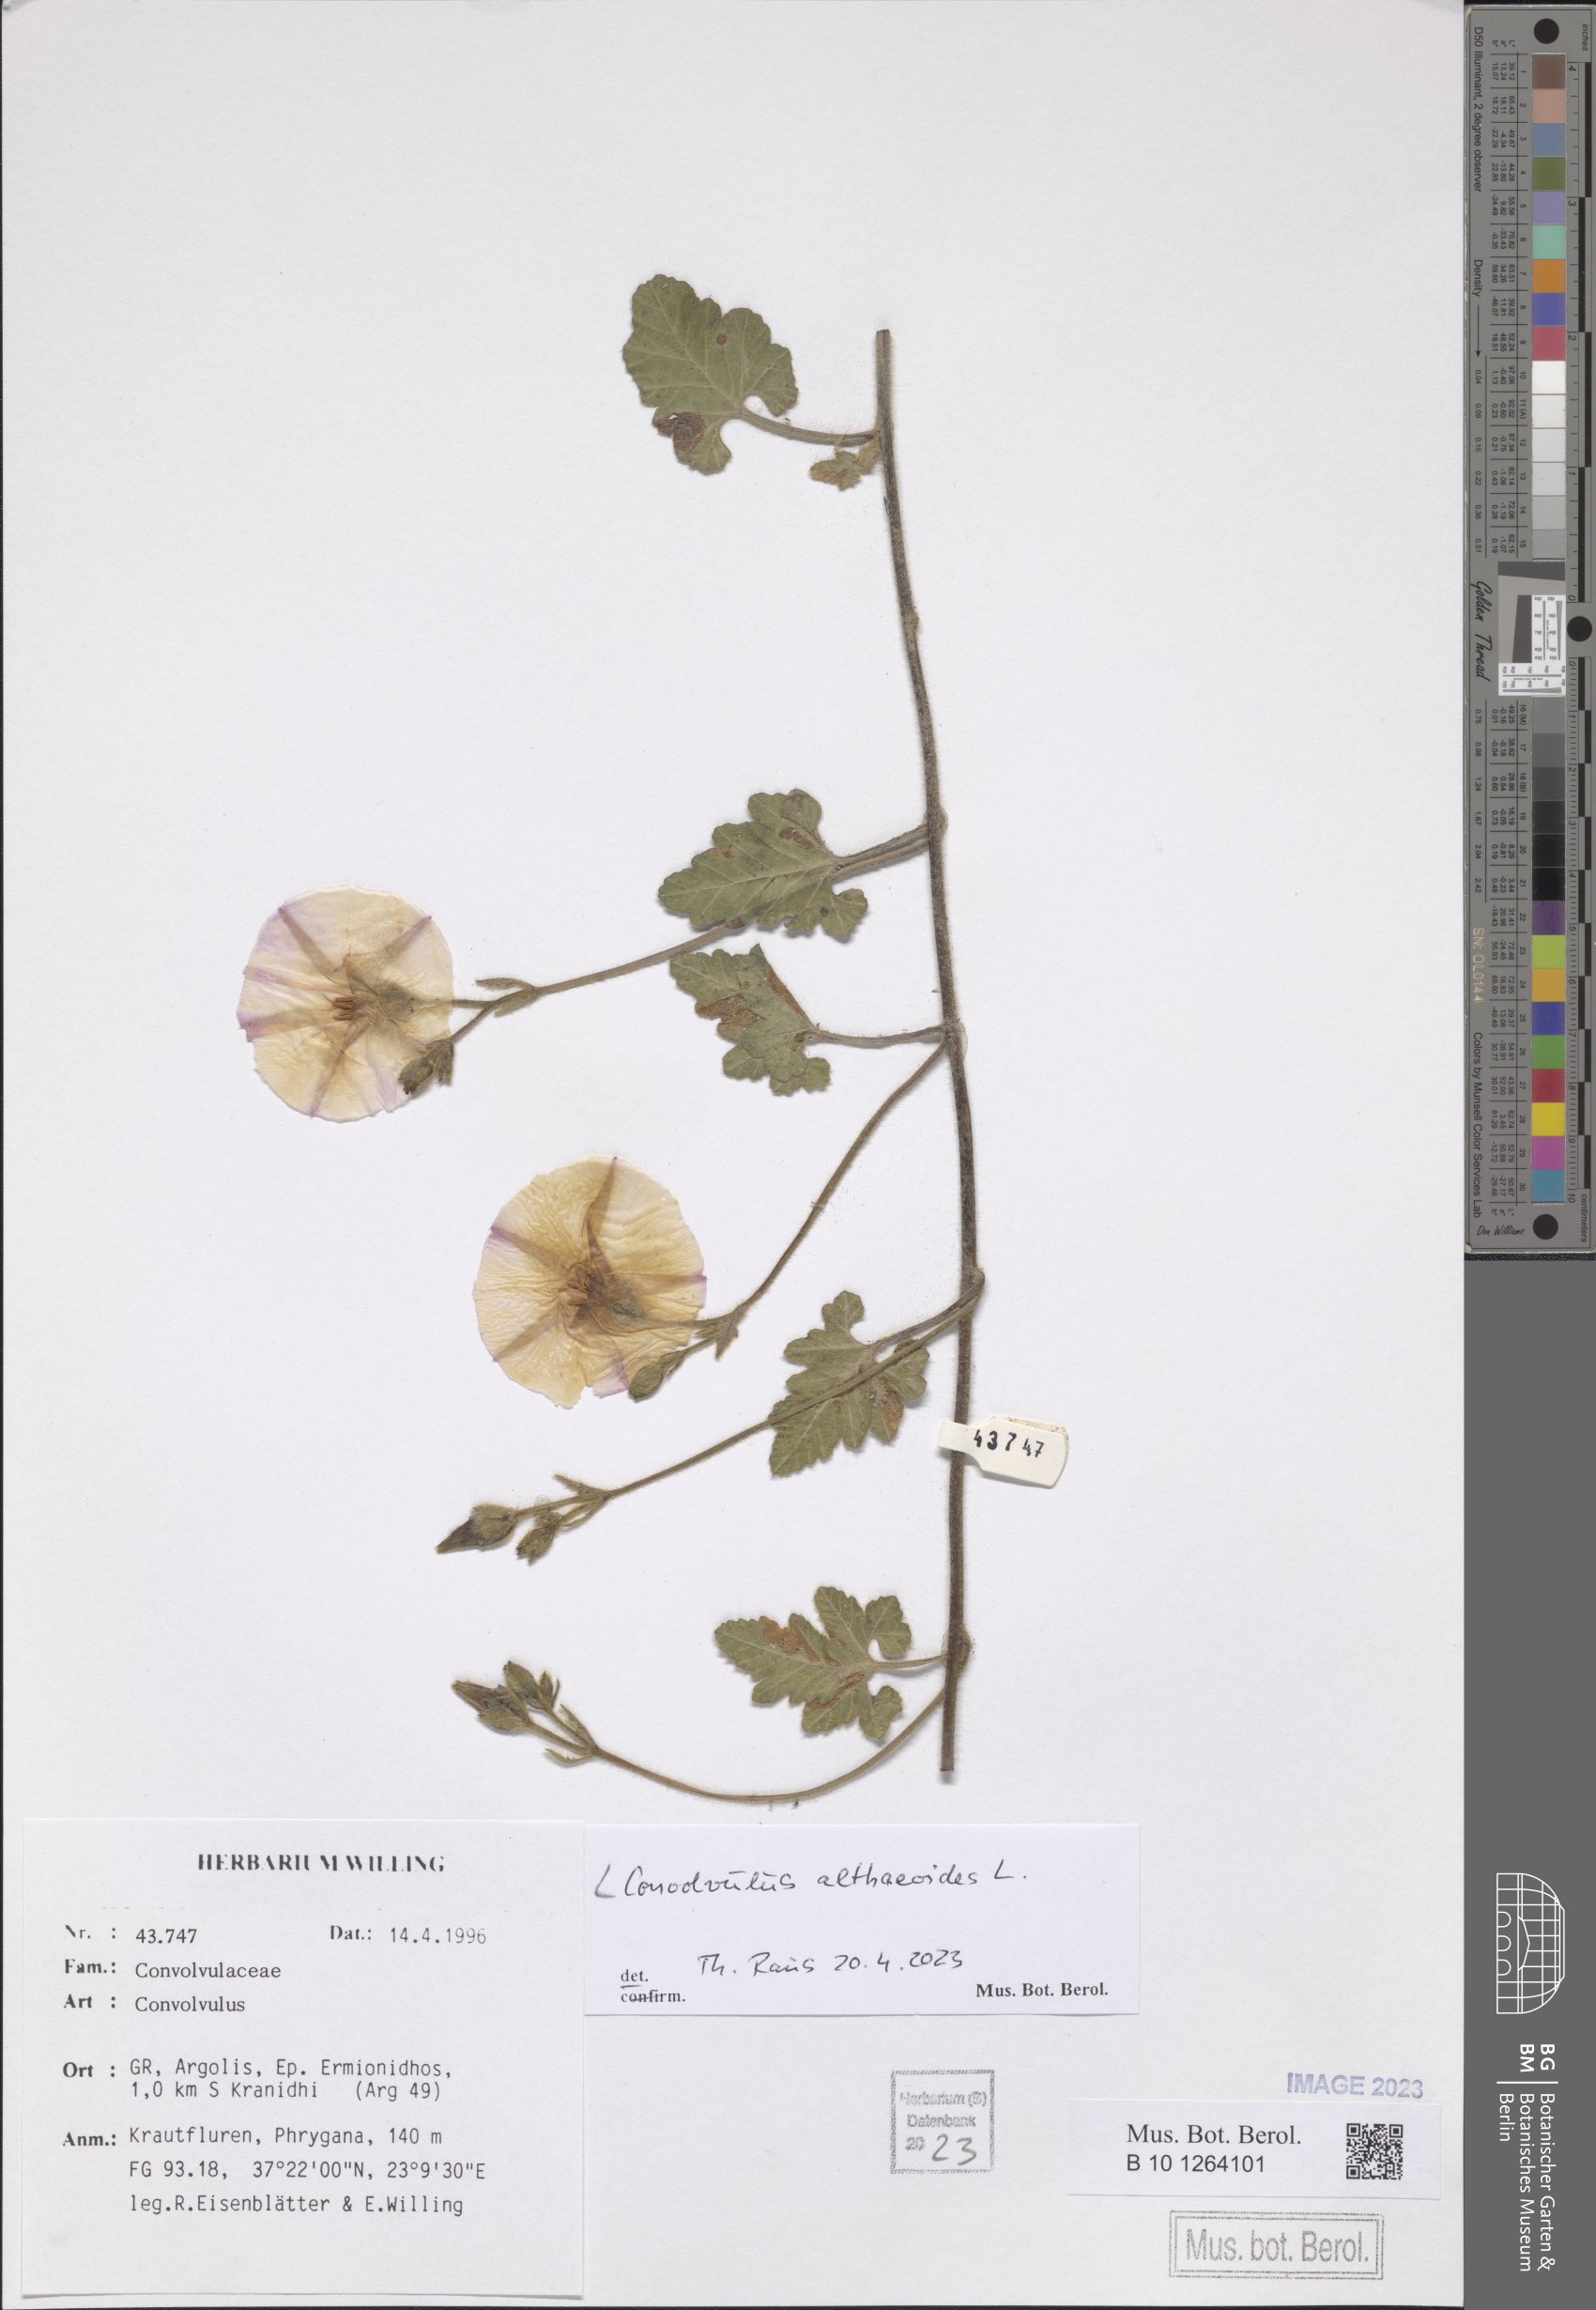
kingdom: Plantae
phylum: Tracheophyta
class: Magnoliopsida
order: Solanales
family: Convolvulaceae
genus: Convolvulus
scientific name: Convolvulus althaeoides
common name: Mallow bindweed
